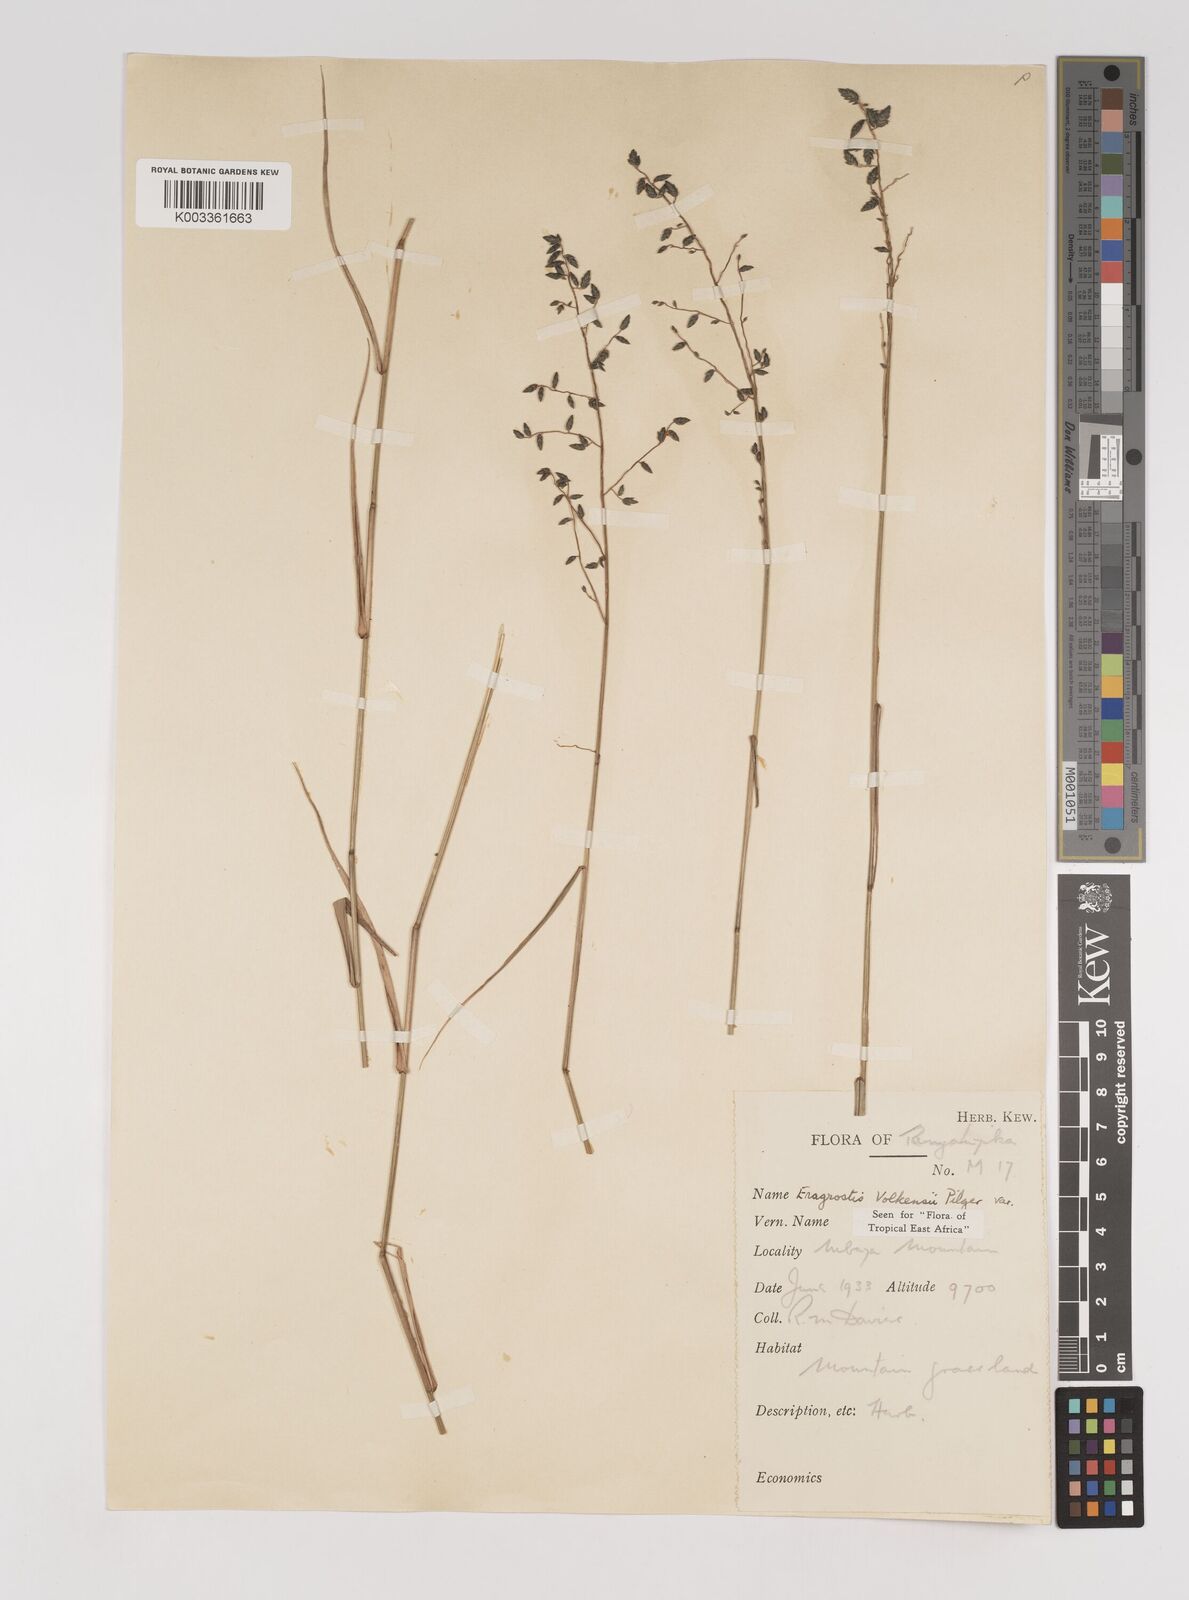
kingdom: Plantae
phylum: Tracheophyta
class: Liliopsida
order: Poales
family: Poaceae
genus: Eragrostis
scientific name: Eragrostis volkensii
